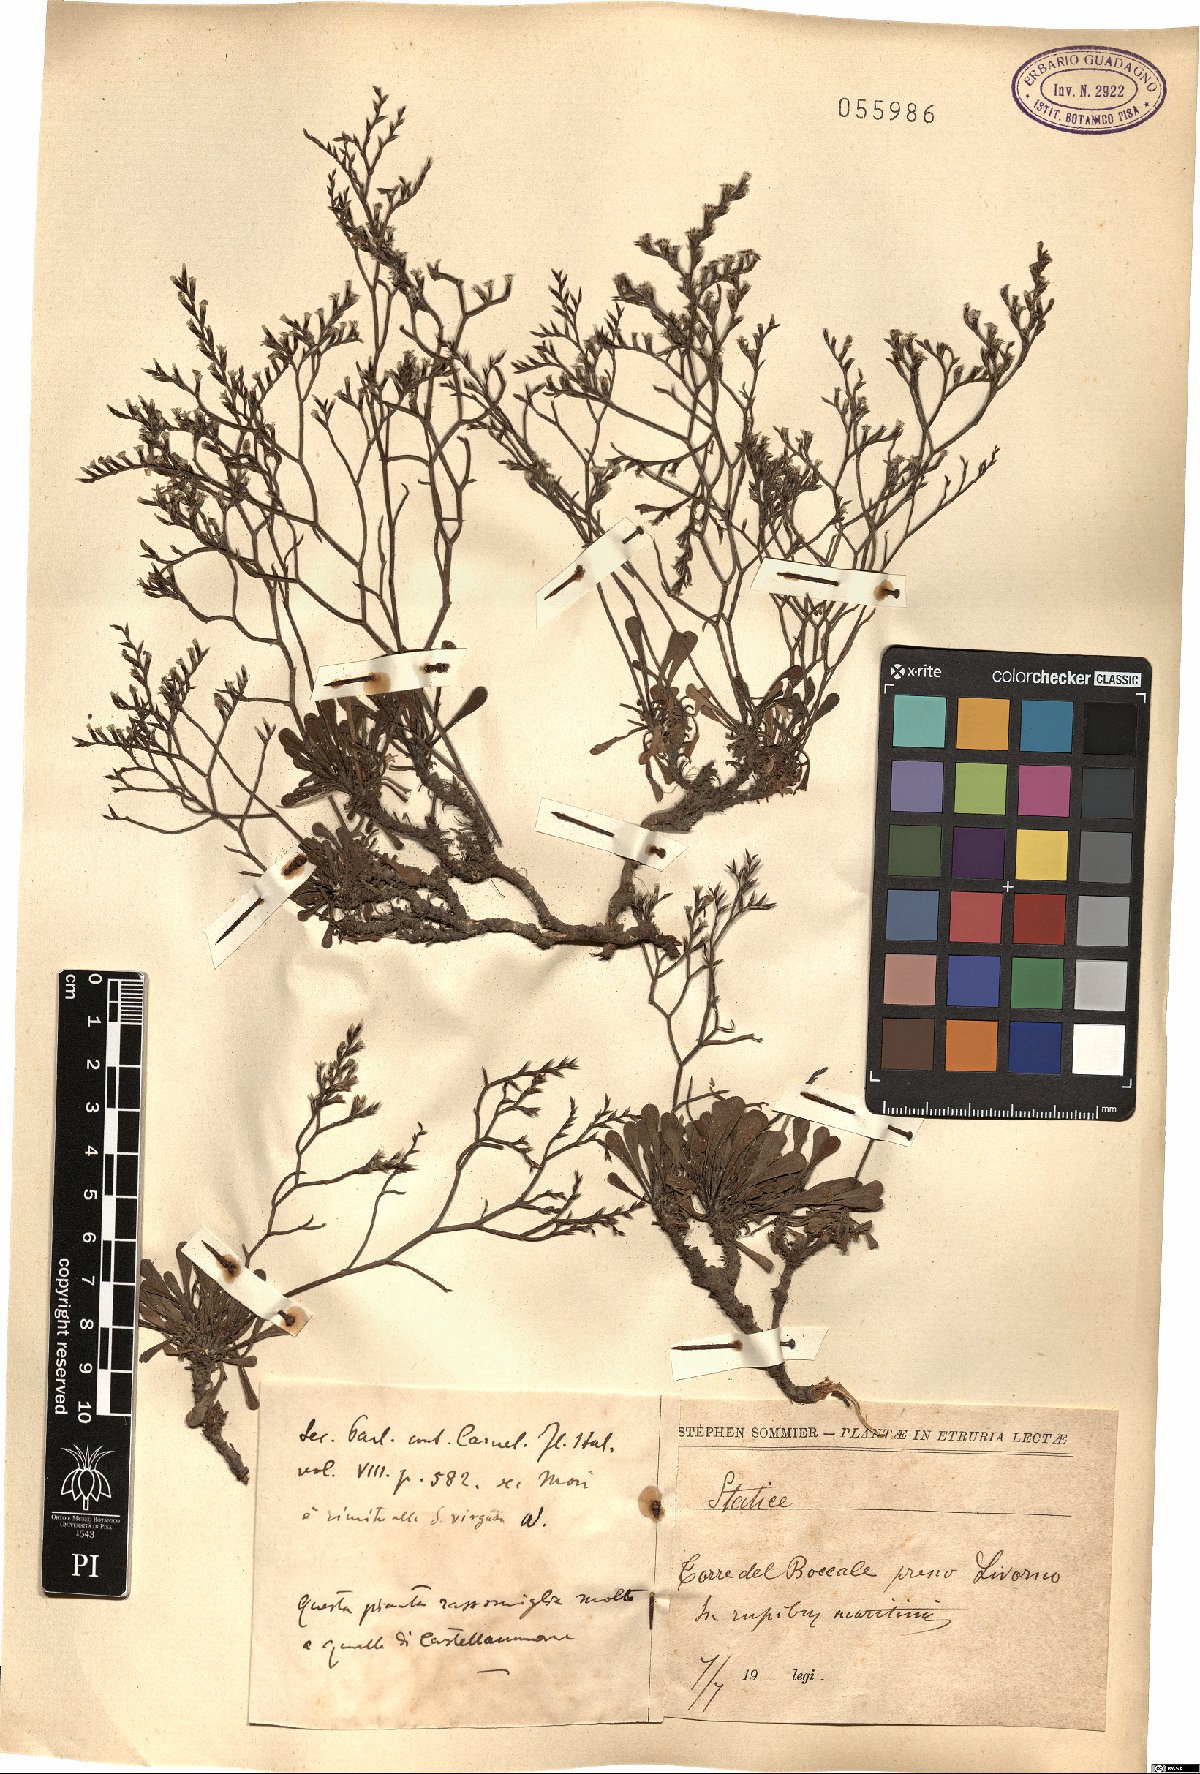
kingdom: Plantae
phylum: Tracheophyta
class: Magnoliopsida
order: Caryophyllales
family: Plumbaginaceae
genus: Armeria
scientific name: Armeria
